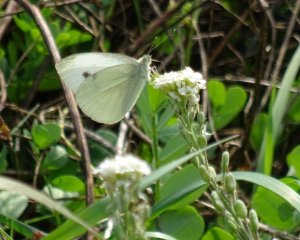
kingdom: Animalia
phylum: Arthropoda
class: Insecta
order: Lepidoptera
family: Pieridae
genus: Pieris
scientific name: Pieris rapae
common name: Cabbage White
